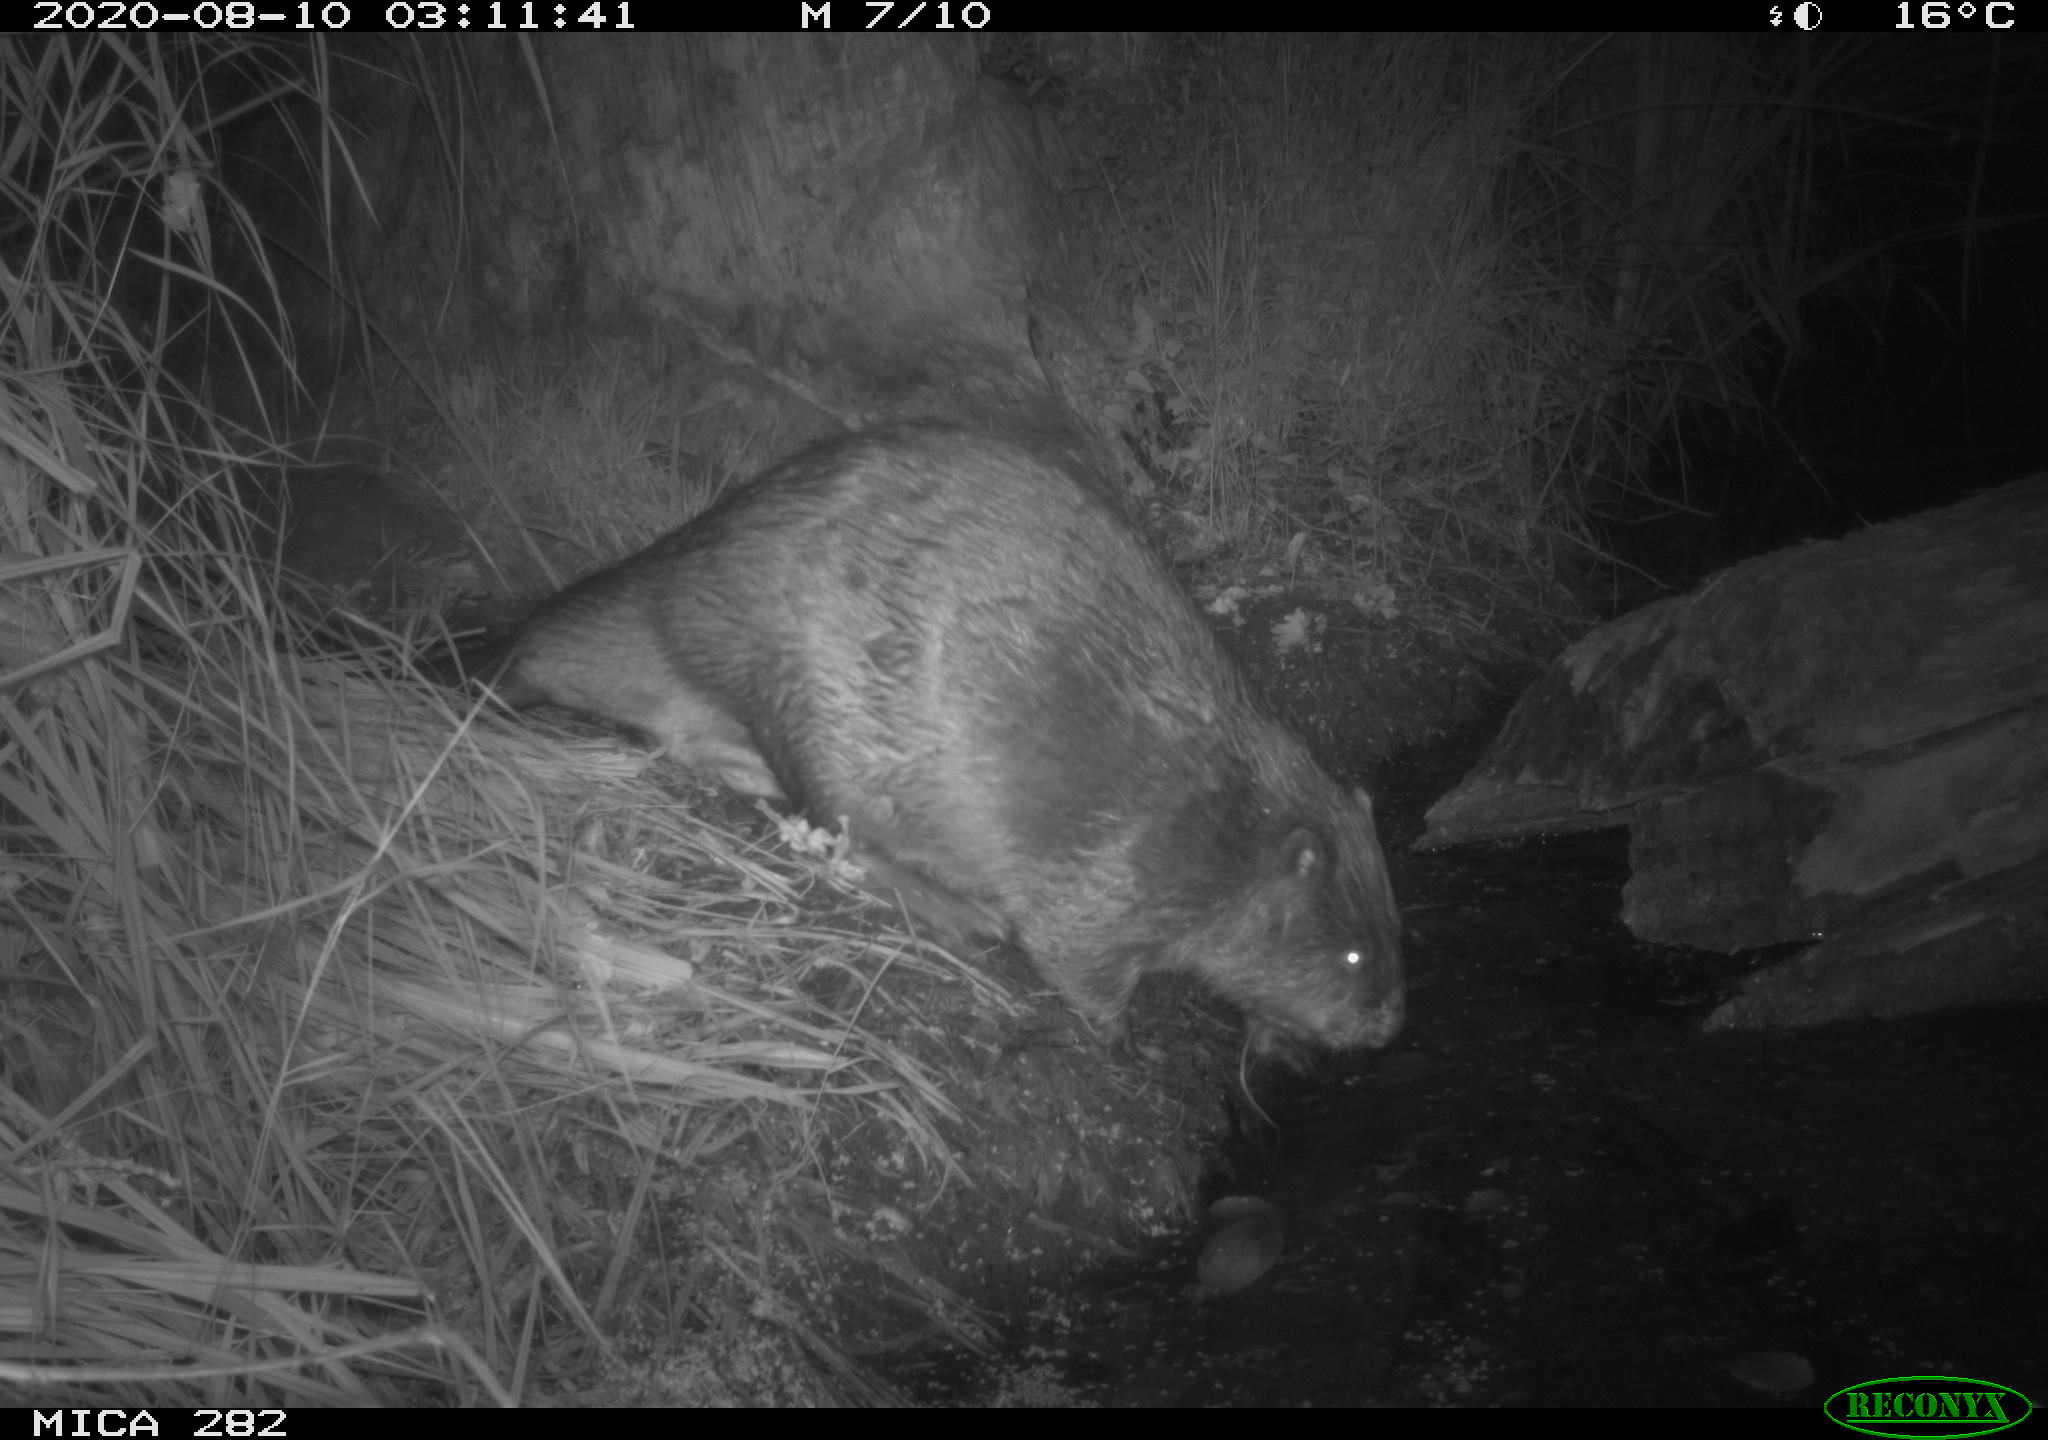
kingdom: Animalia
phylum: Chordata
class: Mammalia
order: Rodentia
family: Castoridae
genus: Castor
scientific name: Castor fiber
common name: Eurasian beaver
